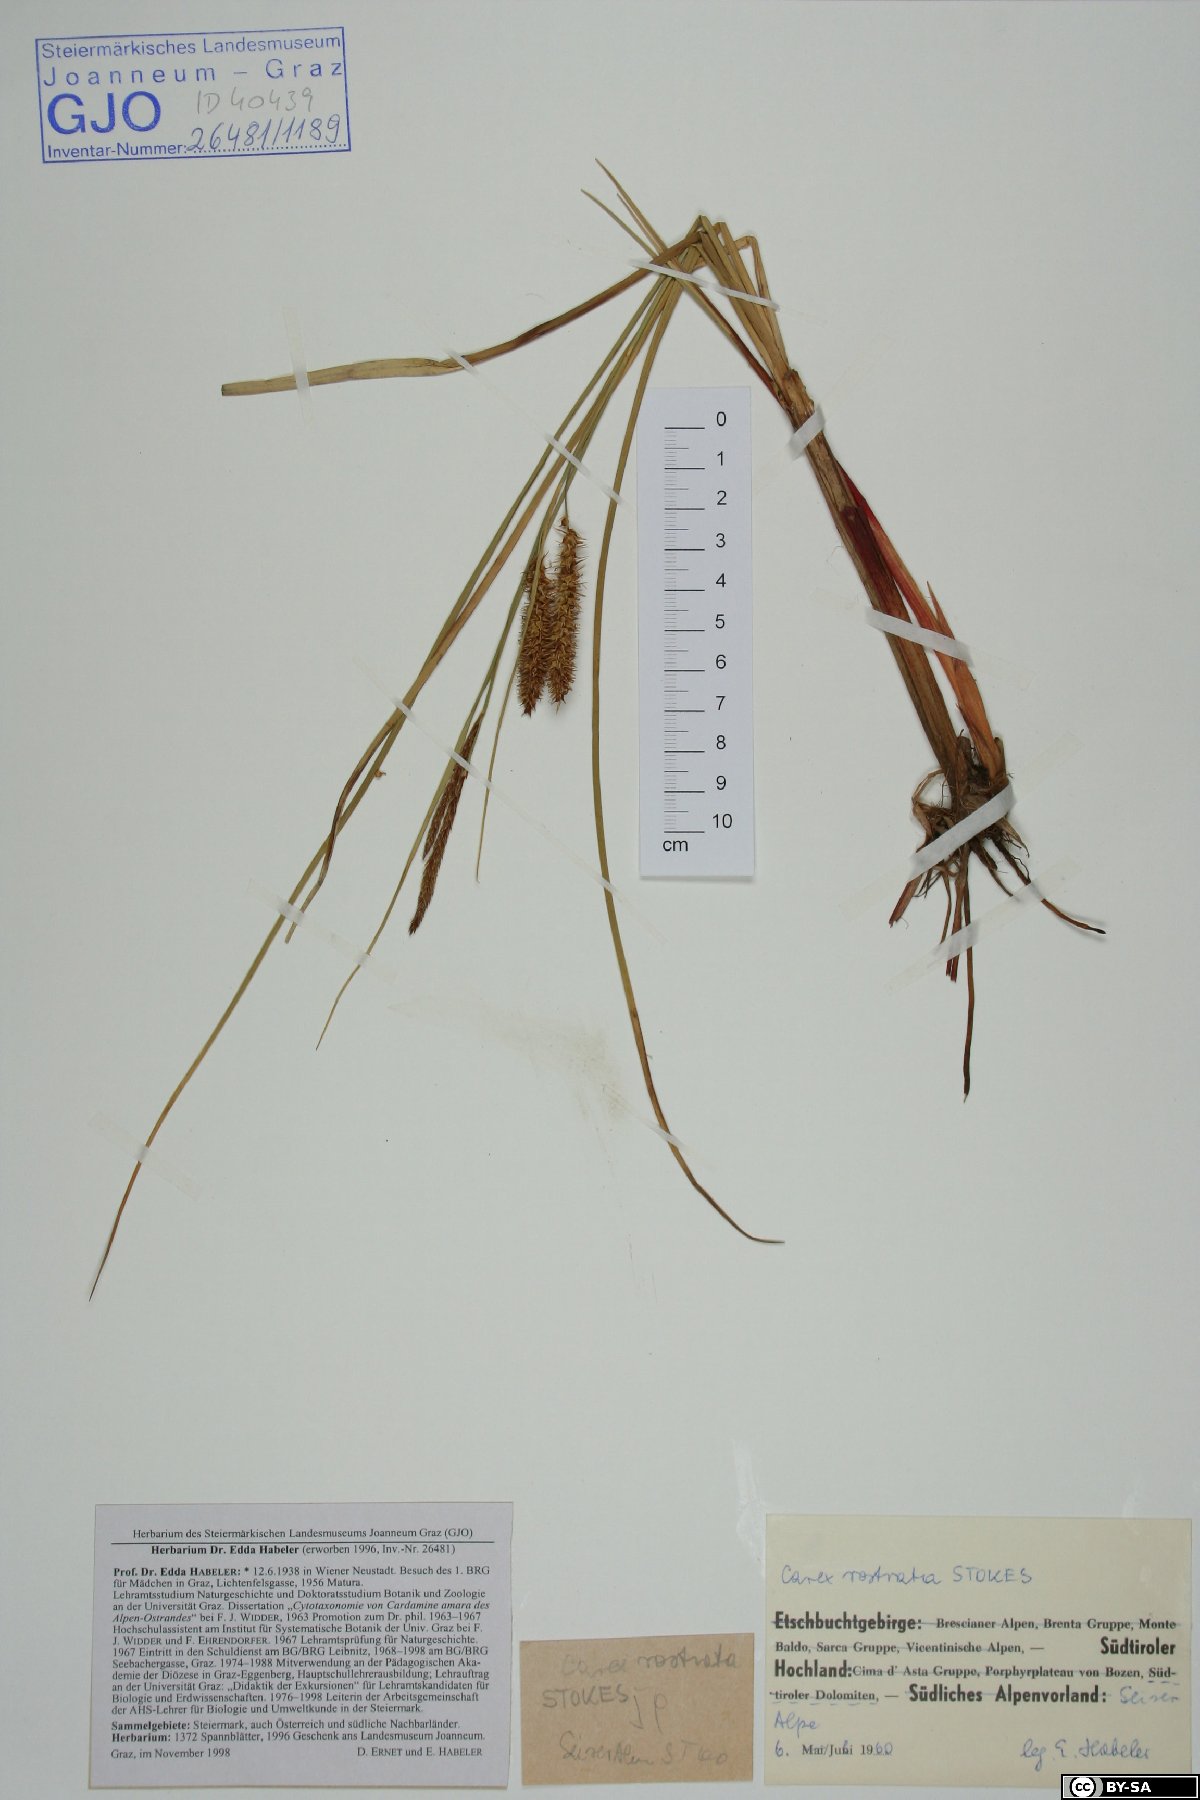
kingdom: Plantae
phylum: Tracheophyta
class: Liliopsida
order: Poales
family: Cyperaceae
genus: Carex
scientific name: Carex rostrata
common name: Bottle sedge
